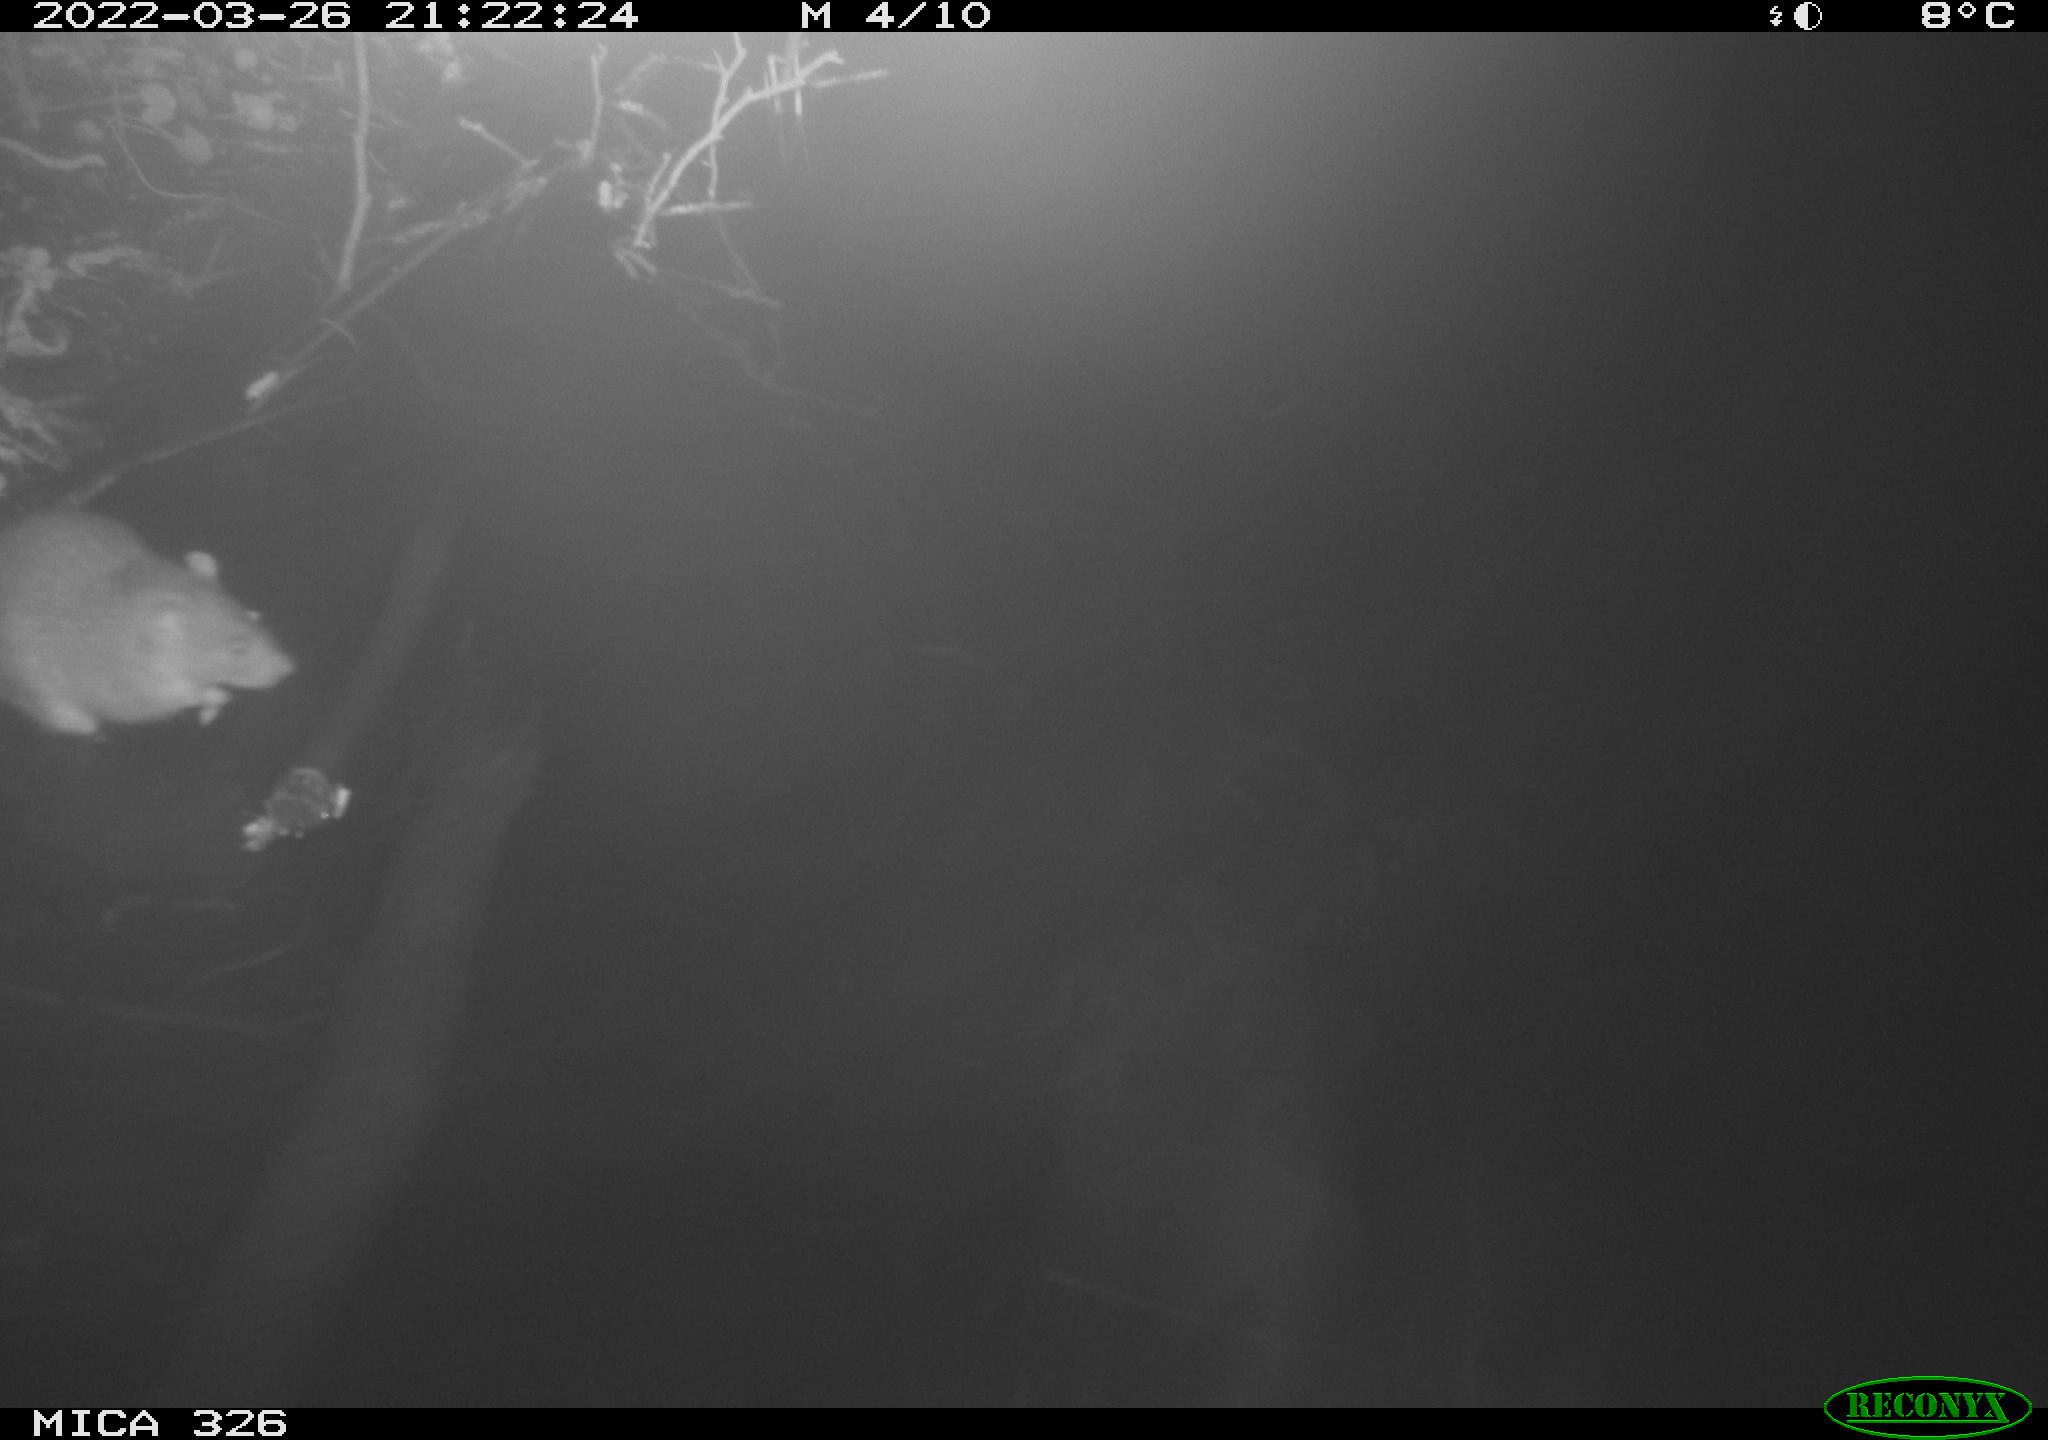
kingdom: Animalia
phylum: Chordata
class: Mammalia
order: Rodentia
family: Muridae
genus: Rattus
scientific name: Rattus norvegicus
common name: Brown rat
